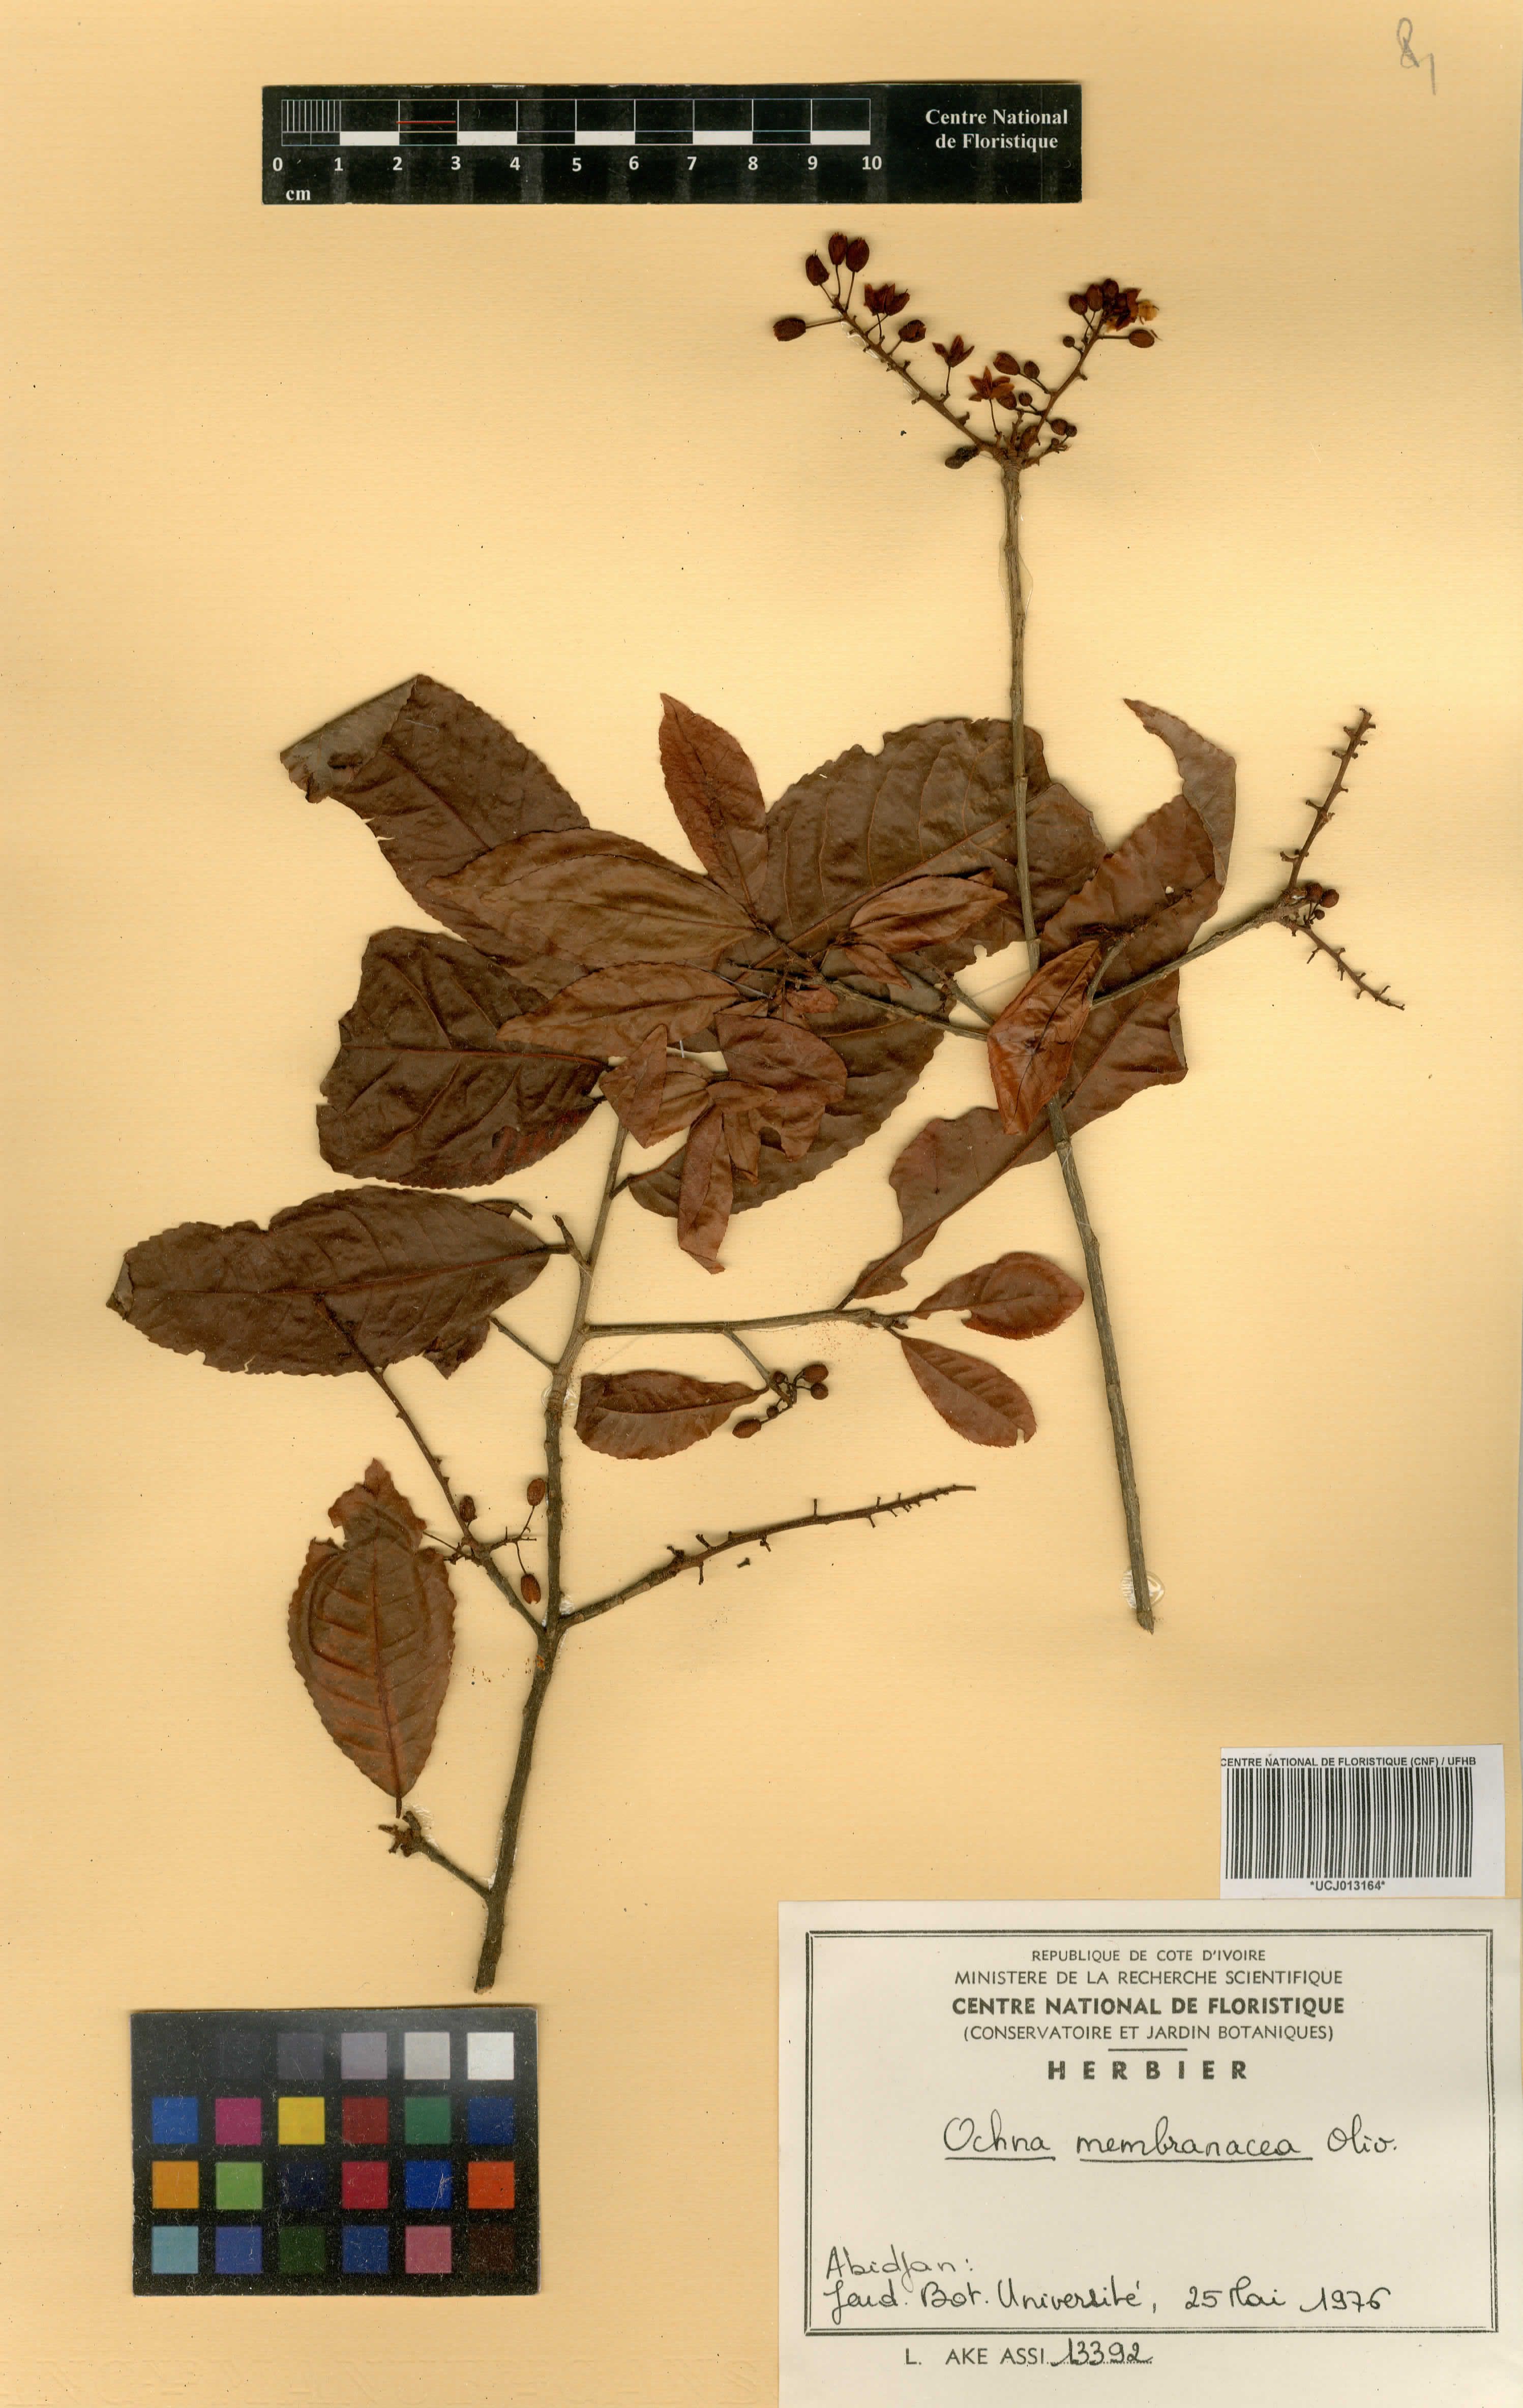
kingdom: Plantae
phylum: Tracheophyta
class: Magnoliopsida
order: Malpighiales
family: Ochnaceae
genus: Ochna
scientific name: Ochna membranacea
